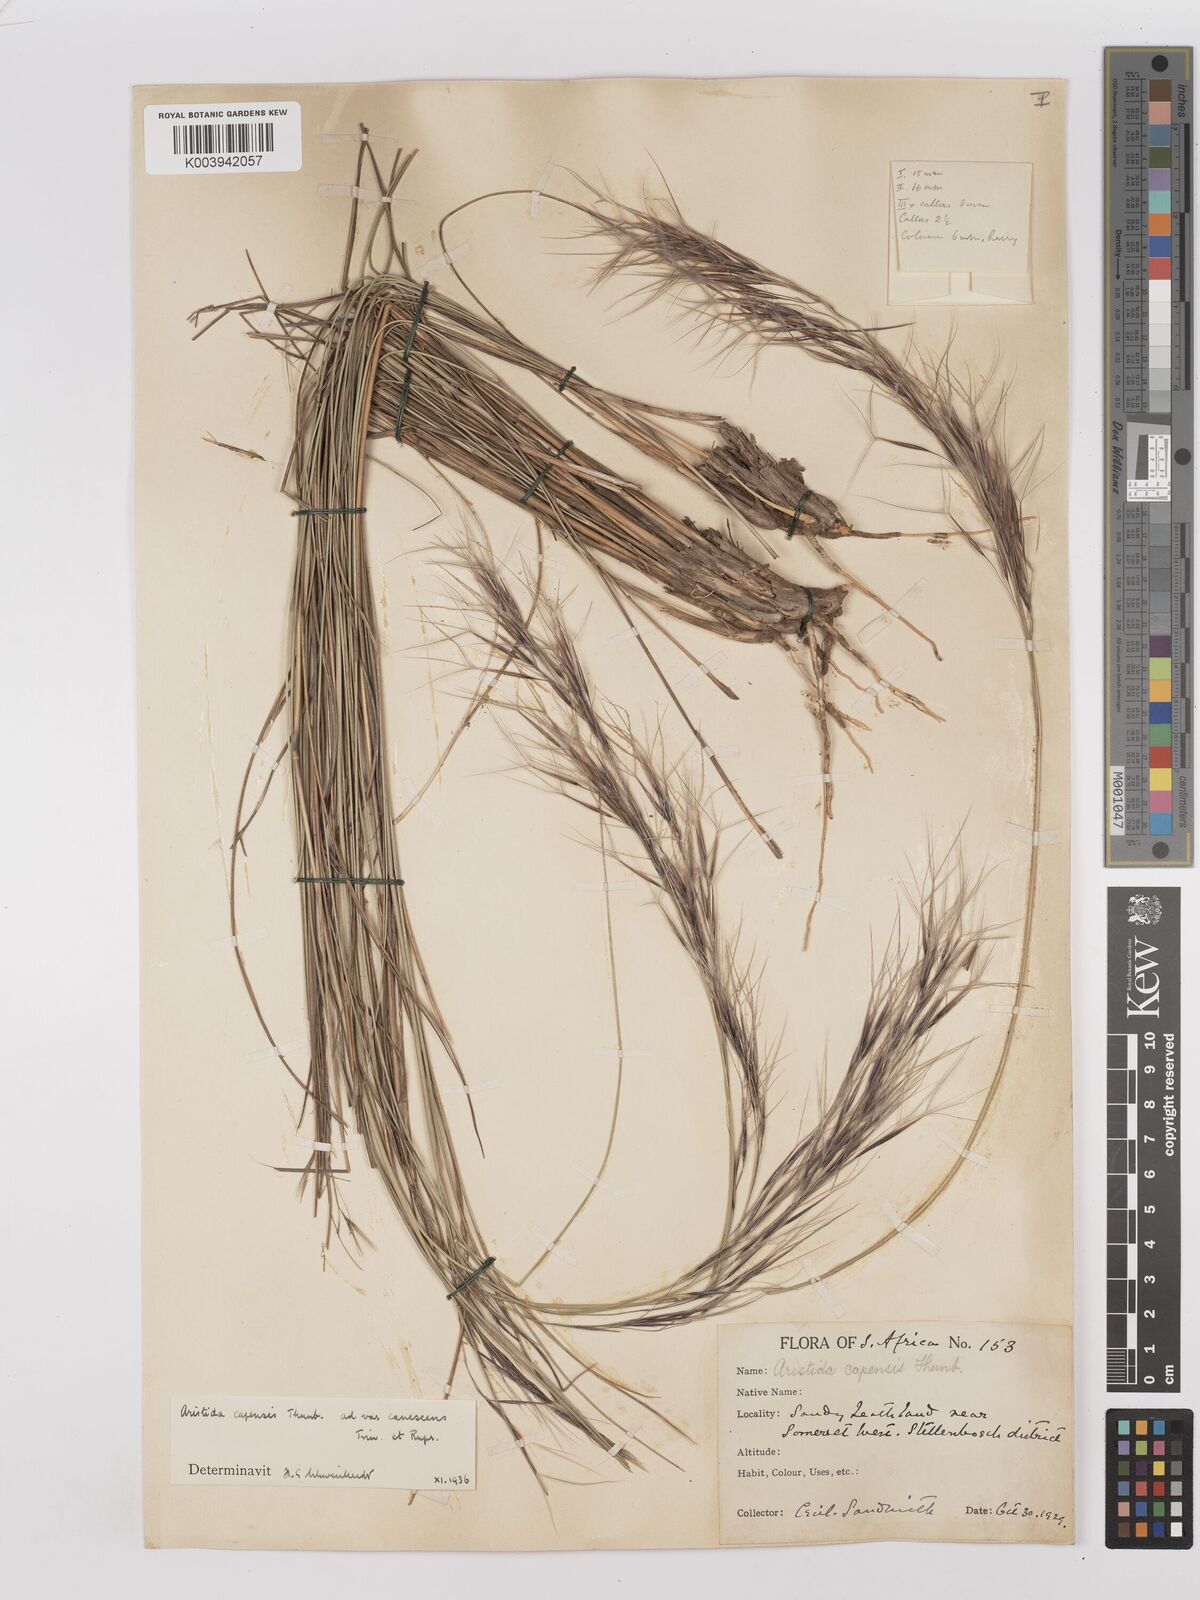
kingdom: Plantae
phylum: Tracheophyta
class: Liliopsida
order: Poales
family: Poaceae
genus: Stipagrostis
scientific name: Stipagrostis zeyheri
